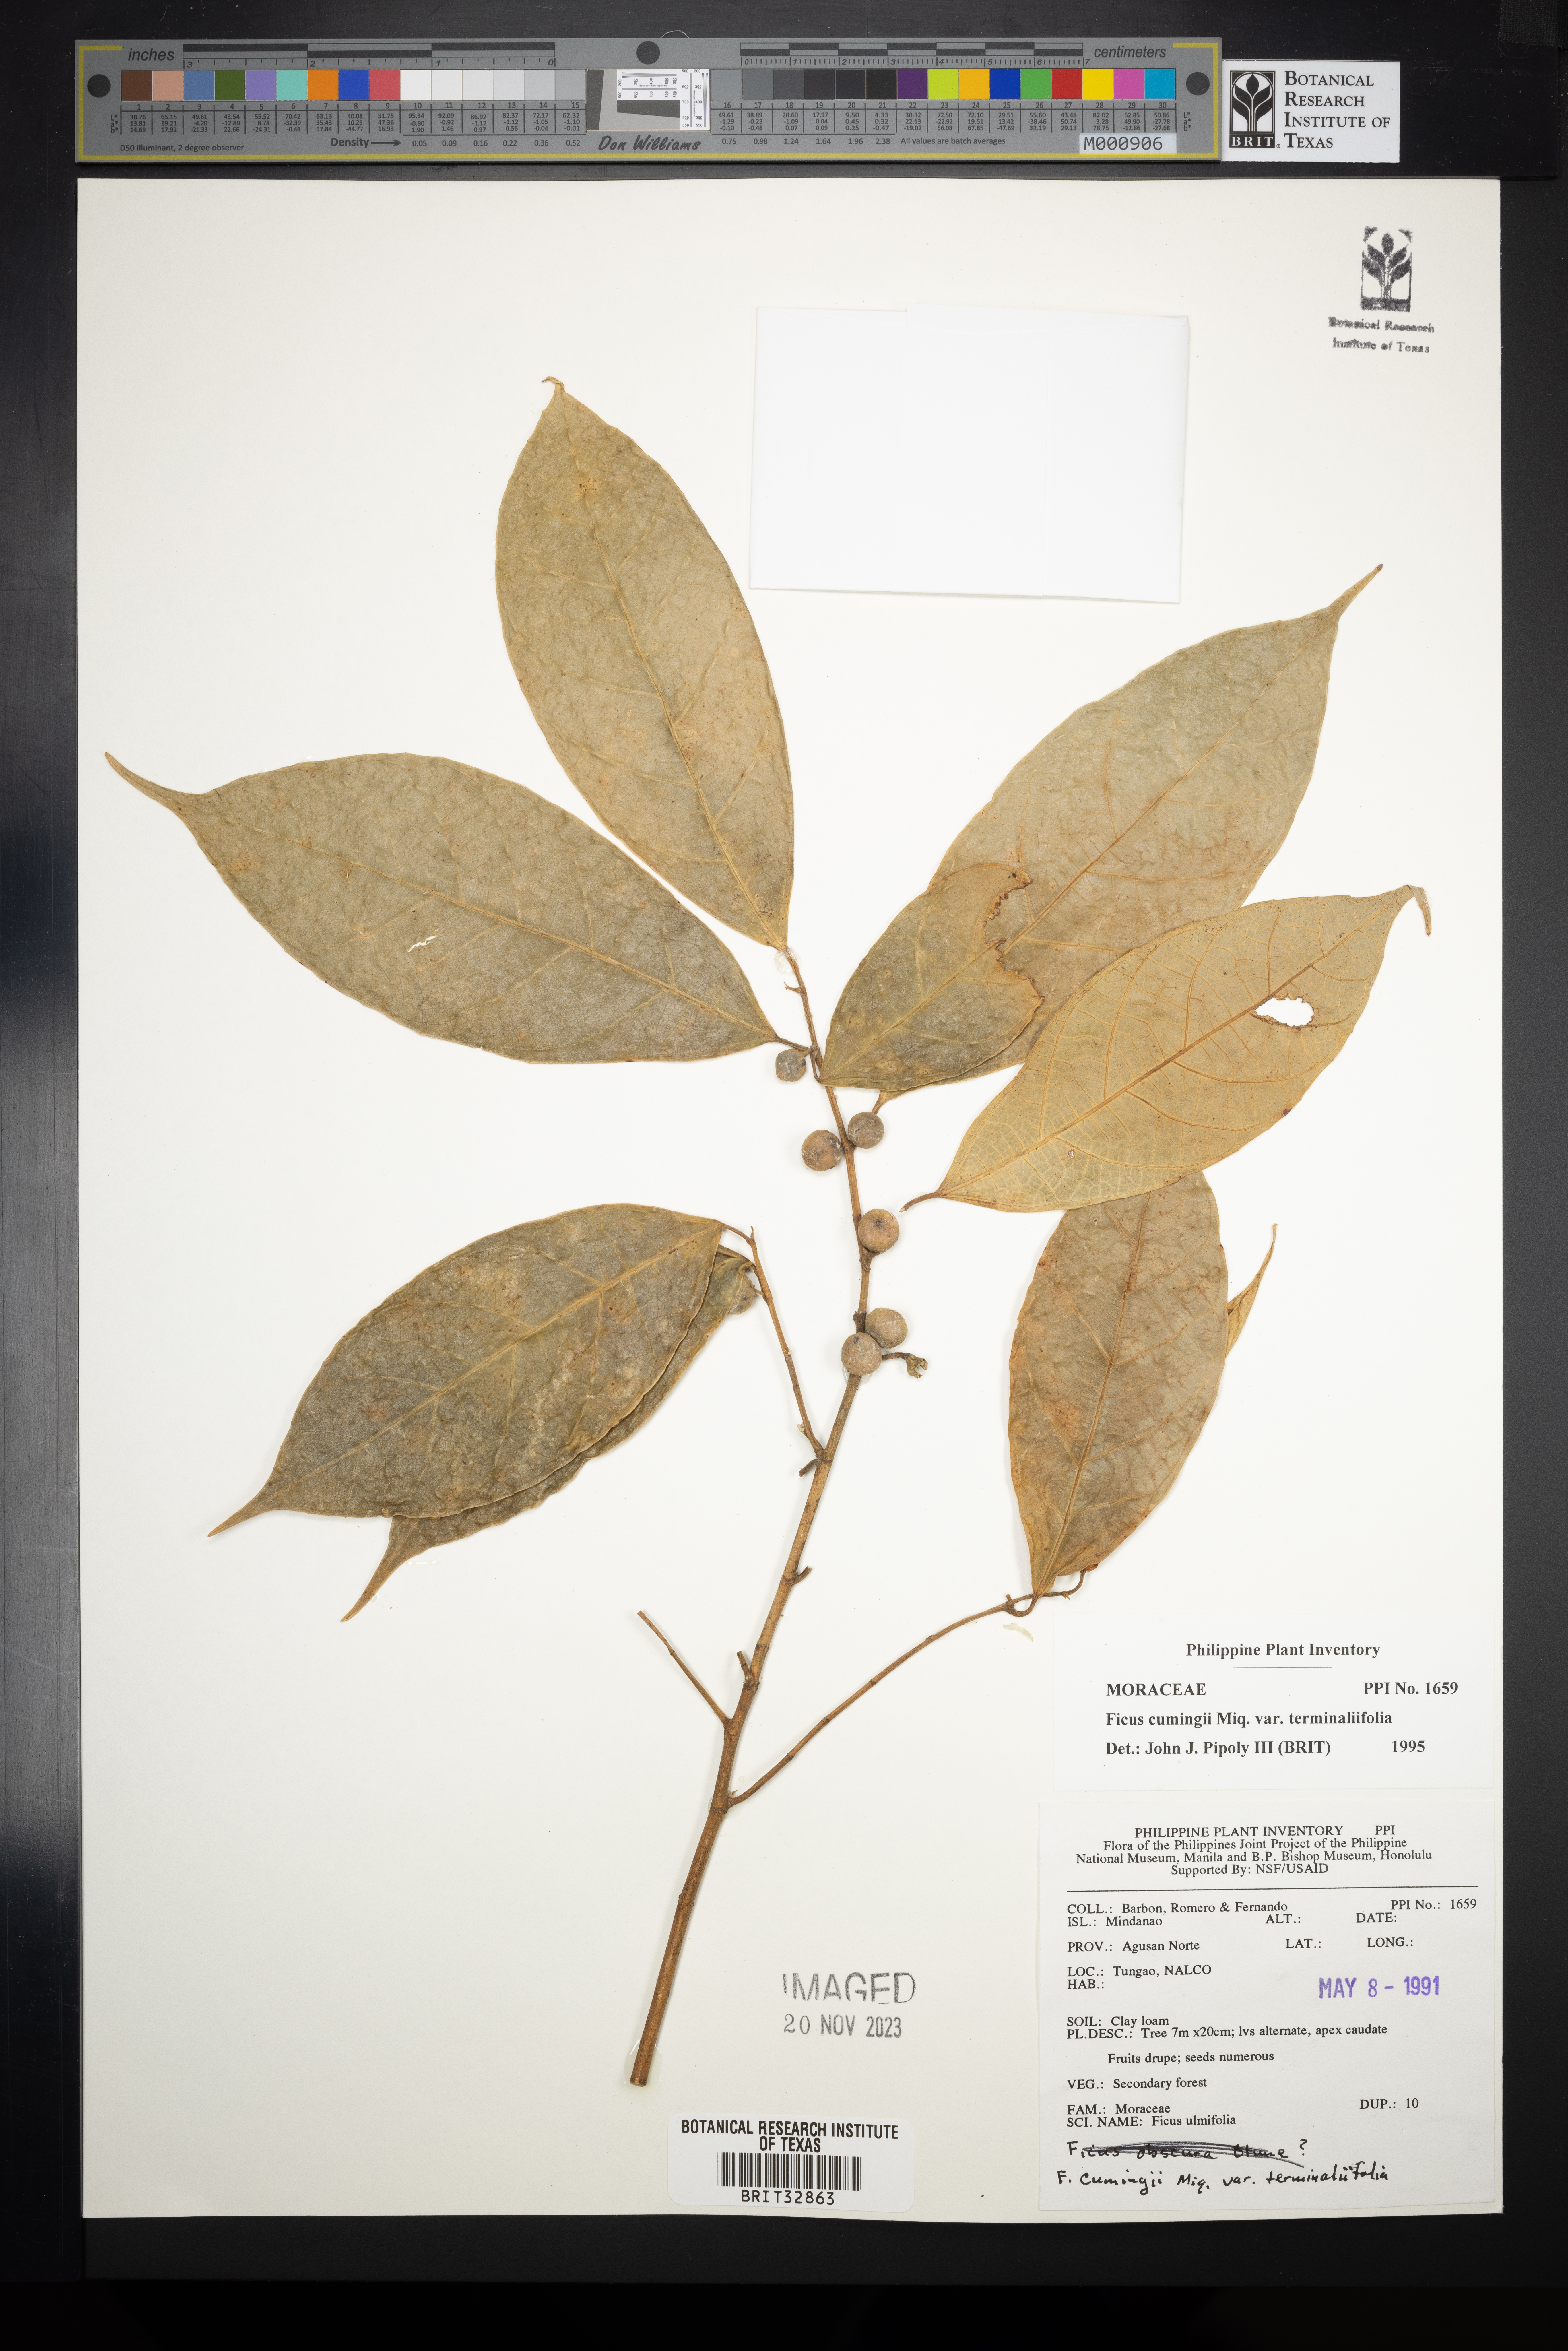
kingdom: Plantae
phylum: Tracheophyta
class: Magnoliopsida
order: Rosales
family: Moraceae
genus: Ficus
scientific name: Ficus cumingii
